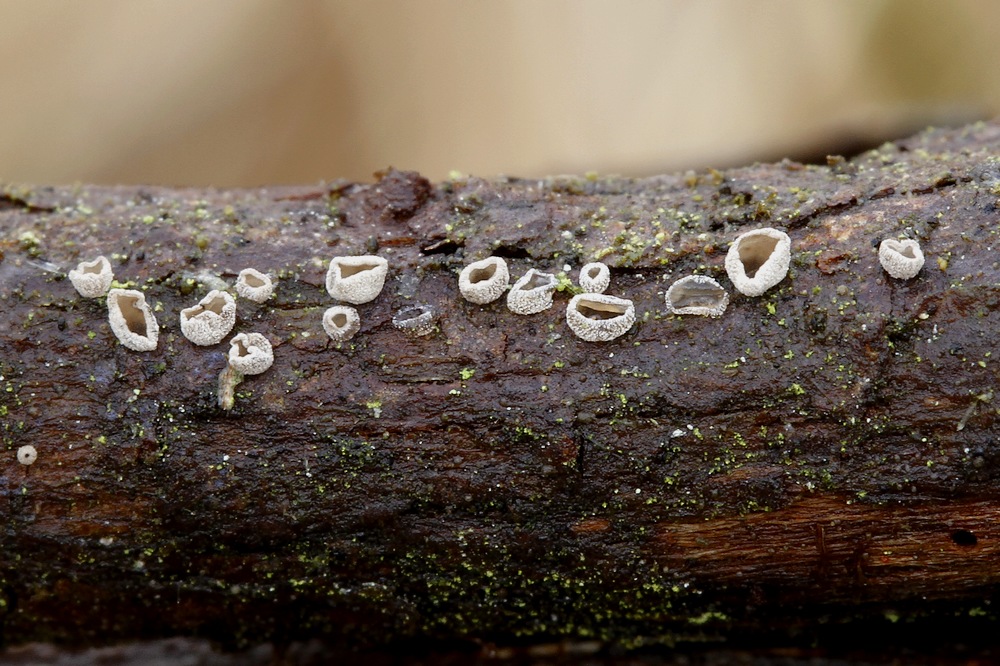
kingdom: Fungi
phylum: Basidiomycota
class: Agaricomycetes
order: Agaricales
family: Pleurotaceae
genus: Resupinatus
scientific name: Resupinatus griseopallidus
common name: ene-barkhat
